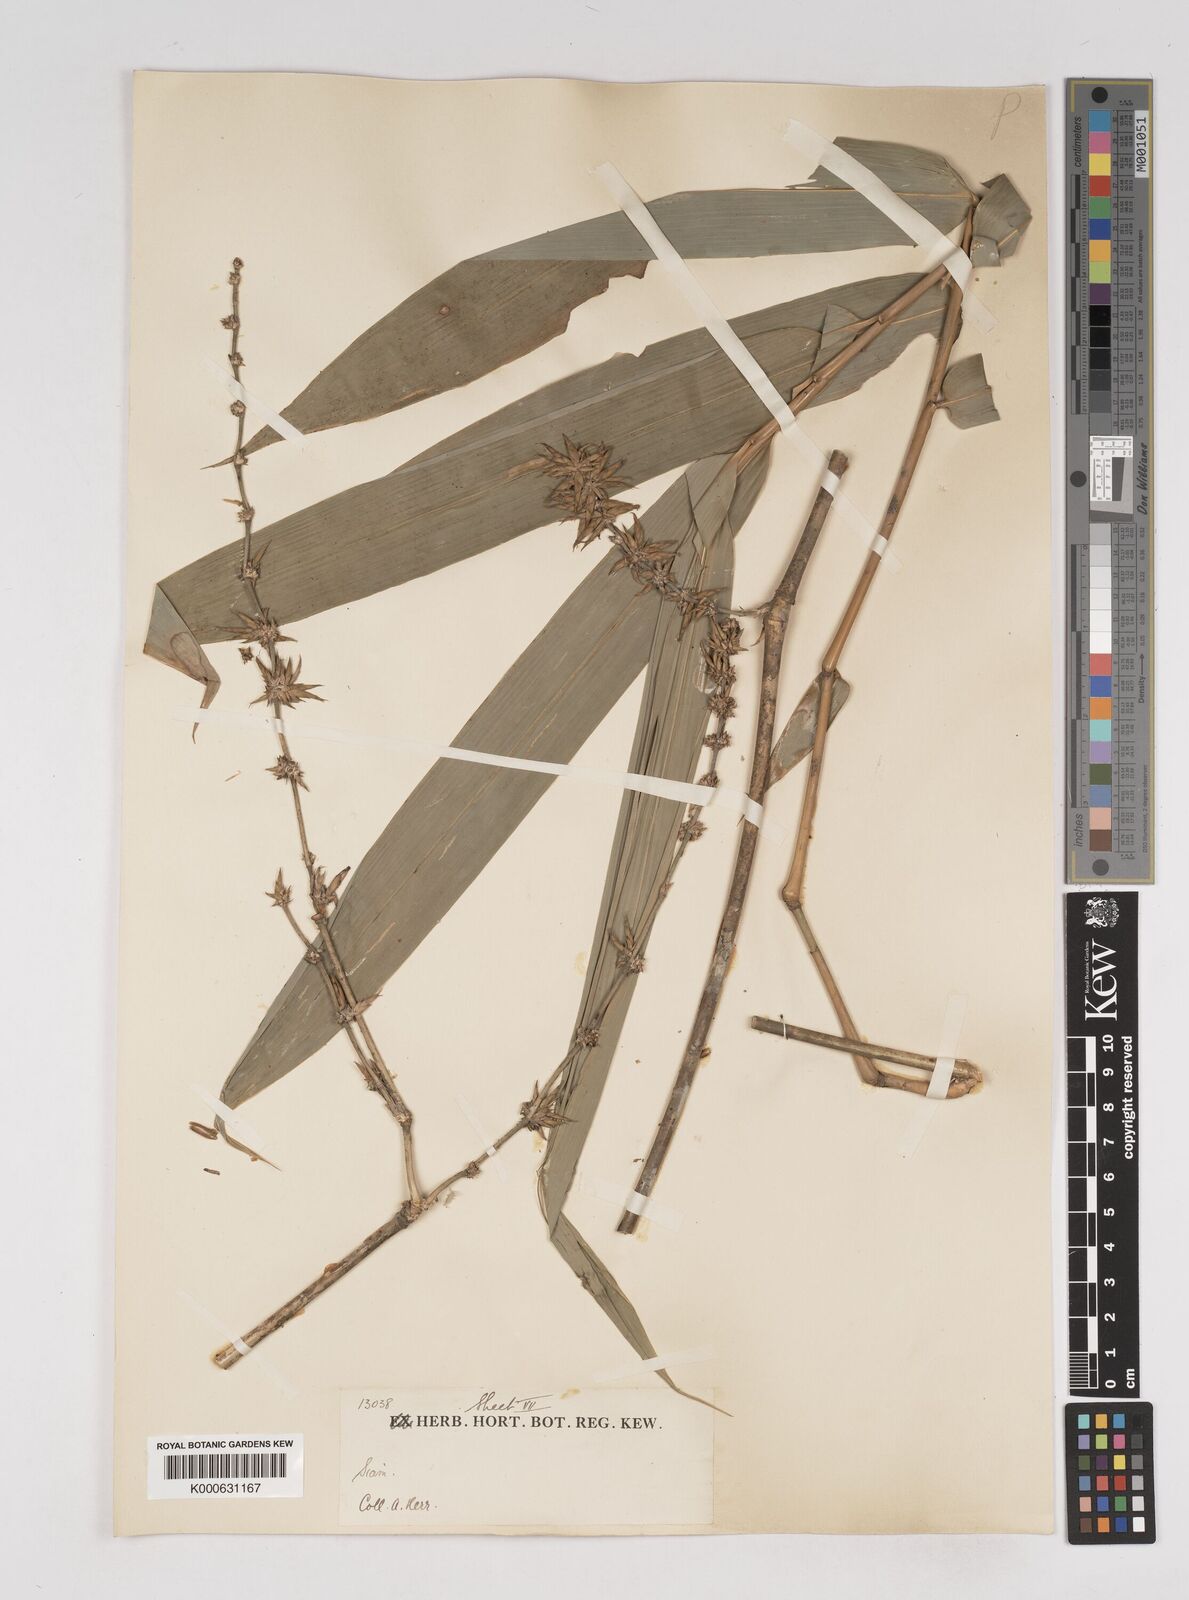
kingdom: Plantae
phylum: Tracheophyta
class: Liliopsida
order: Poales
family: Poaceae
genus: Gigantochloa
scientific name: Gigantochloa
